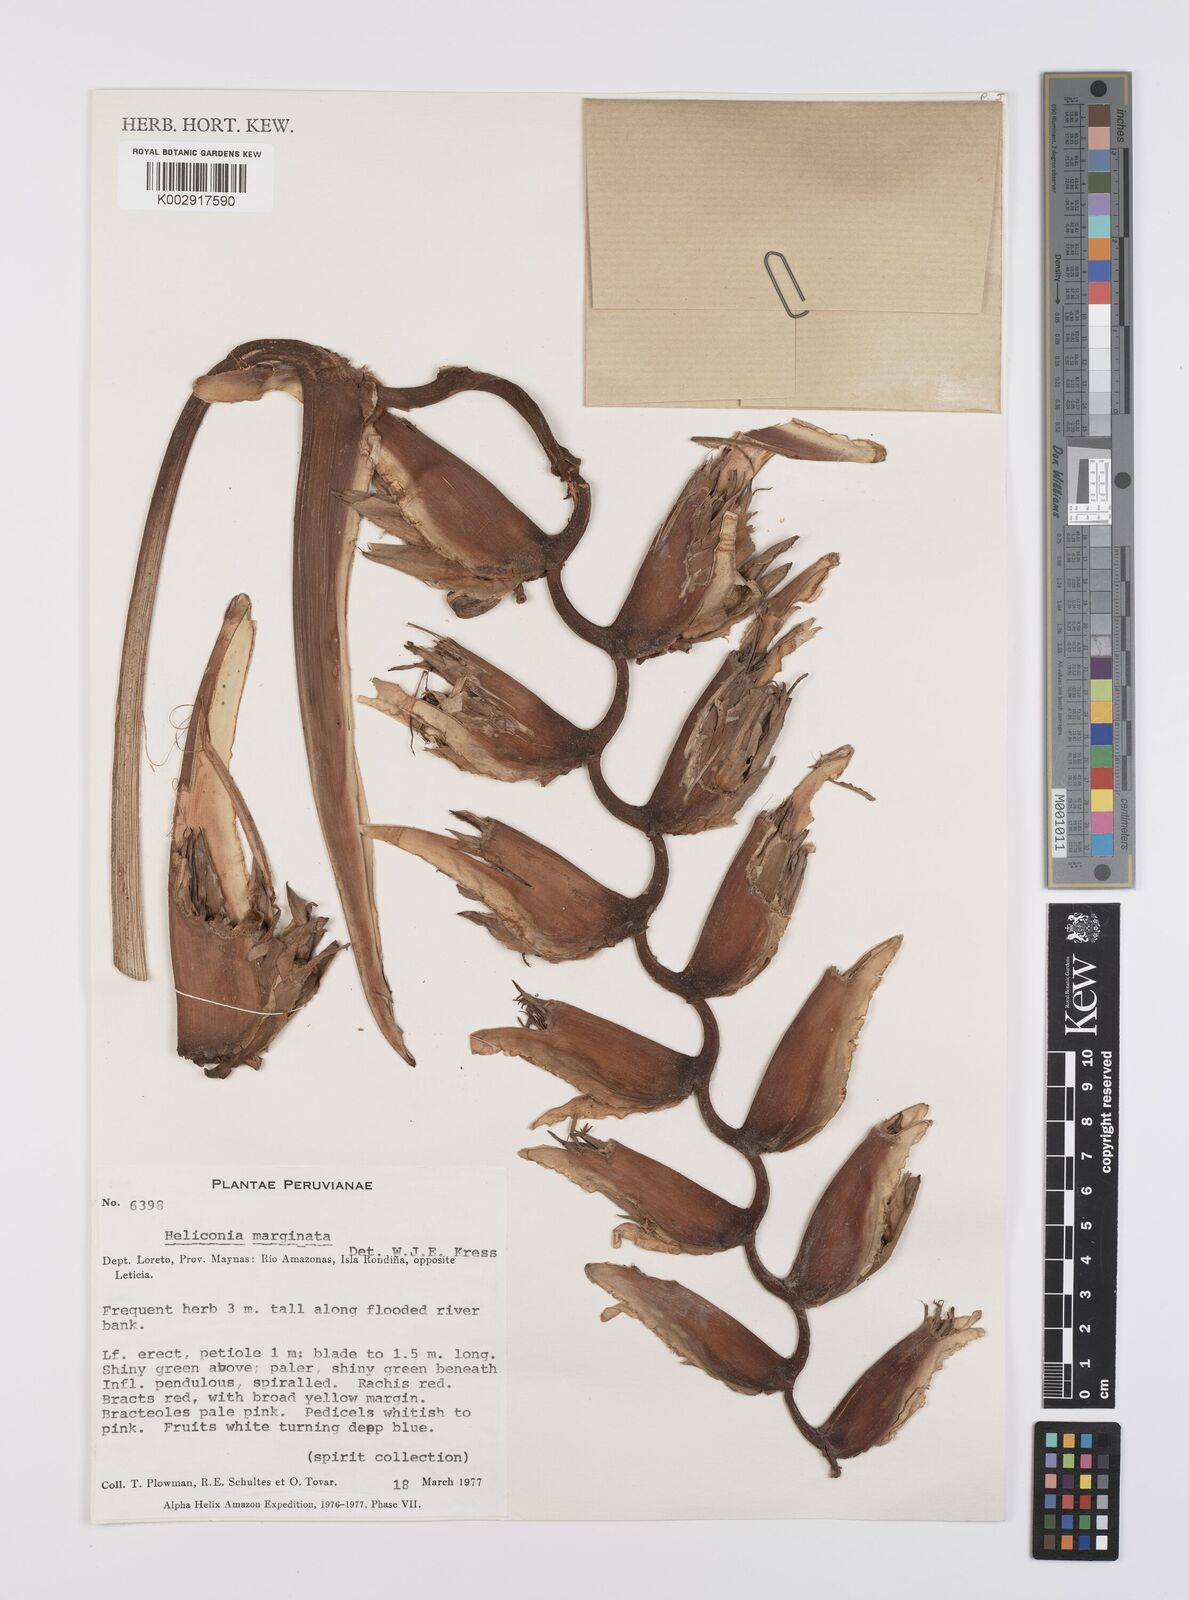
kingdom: Plantae
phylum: Tracheophyta
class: Liliopsida
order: Zingiberales
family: Heliconiaceae
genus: Heliconia
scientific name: Heliconia marginata
